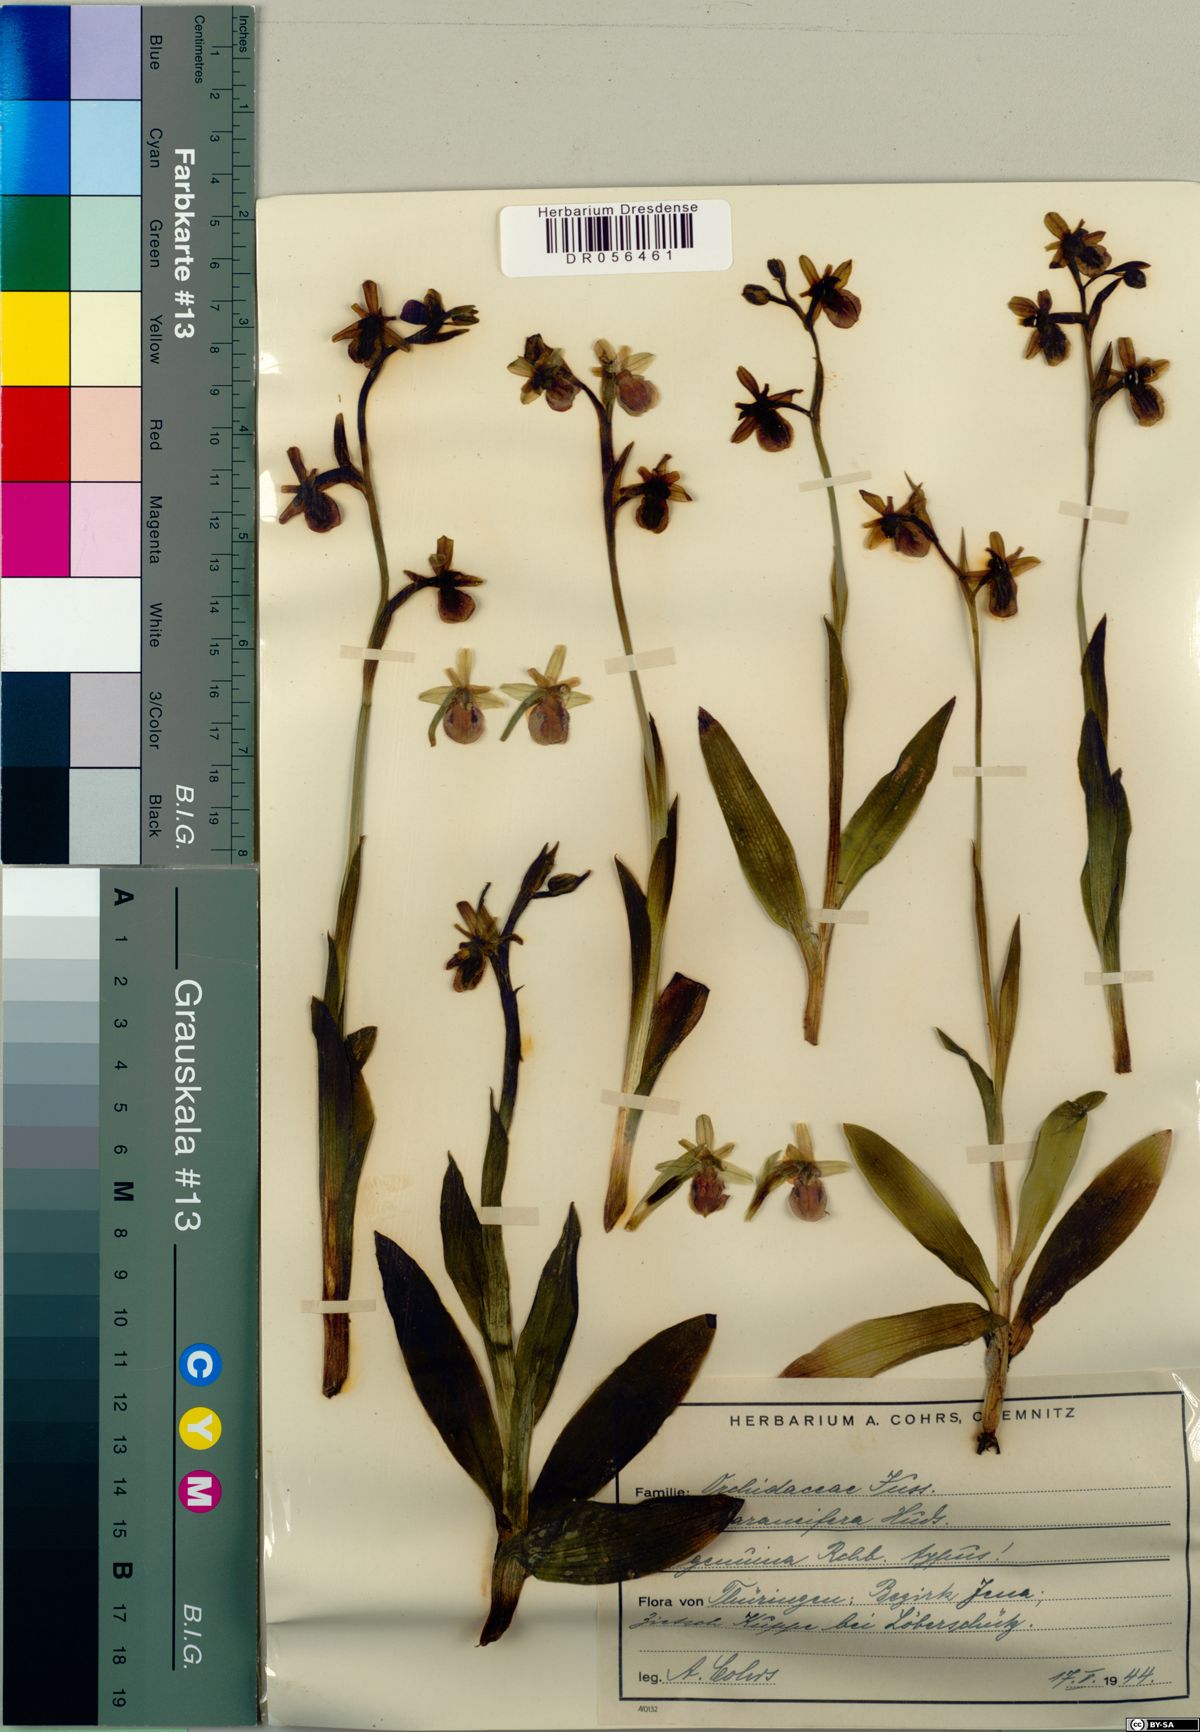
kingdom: Plantae
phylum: Tracheophyta
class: Liliopsida
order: Asparagales
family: Orchidaceae
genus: Ophrys
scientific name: Ophrys sphegodes
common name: Early spider-orchid
